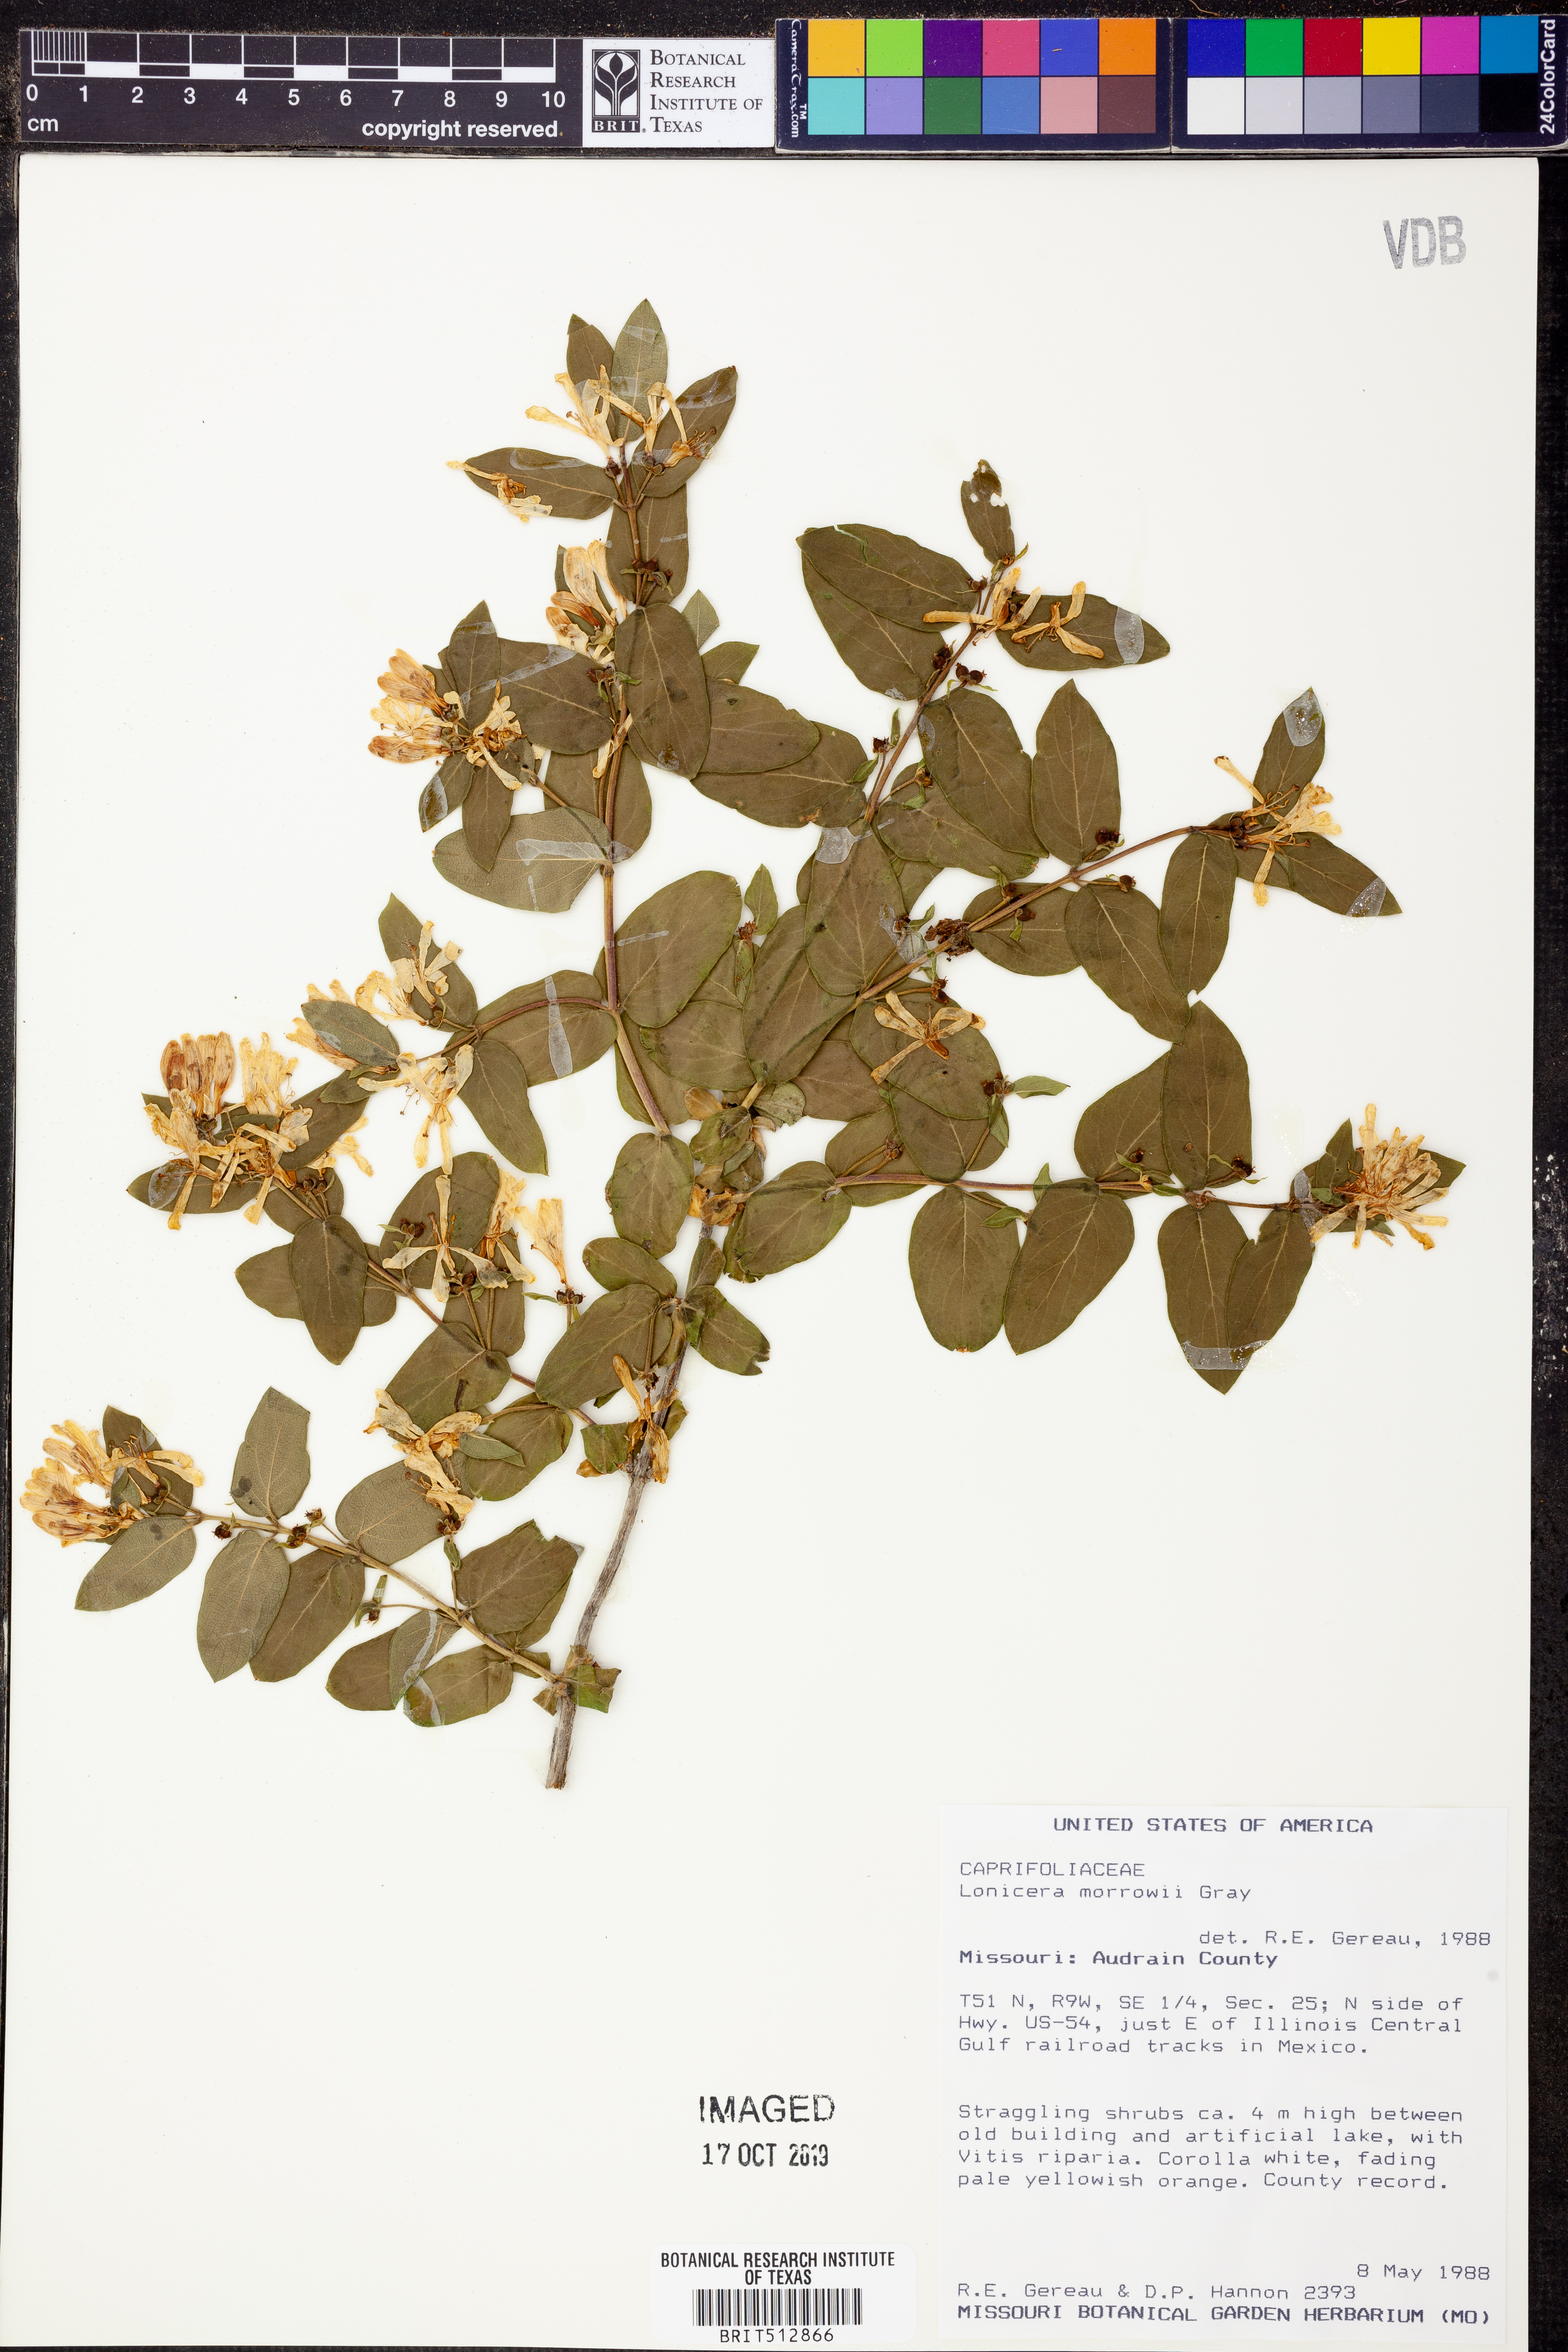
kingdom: Plantae
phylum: Tracheophyta
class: Magnoliopsida
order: Dipsacales
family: Caprifoliaceae
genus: Lonicera
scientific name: Lonicera morrowii
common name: Morrow's honeysuckle
